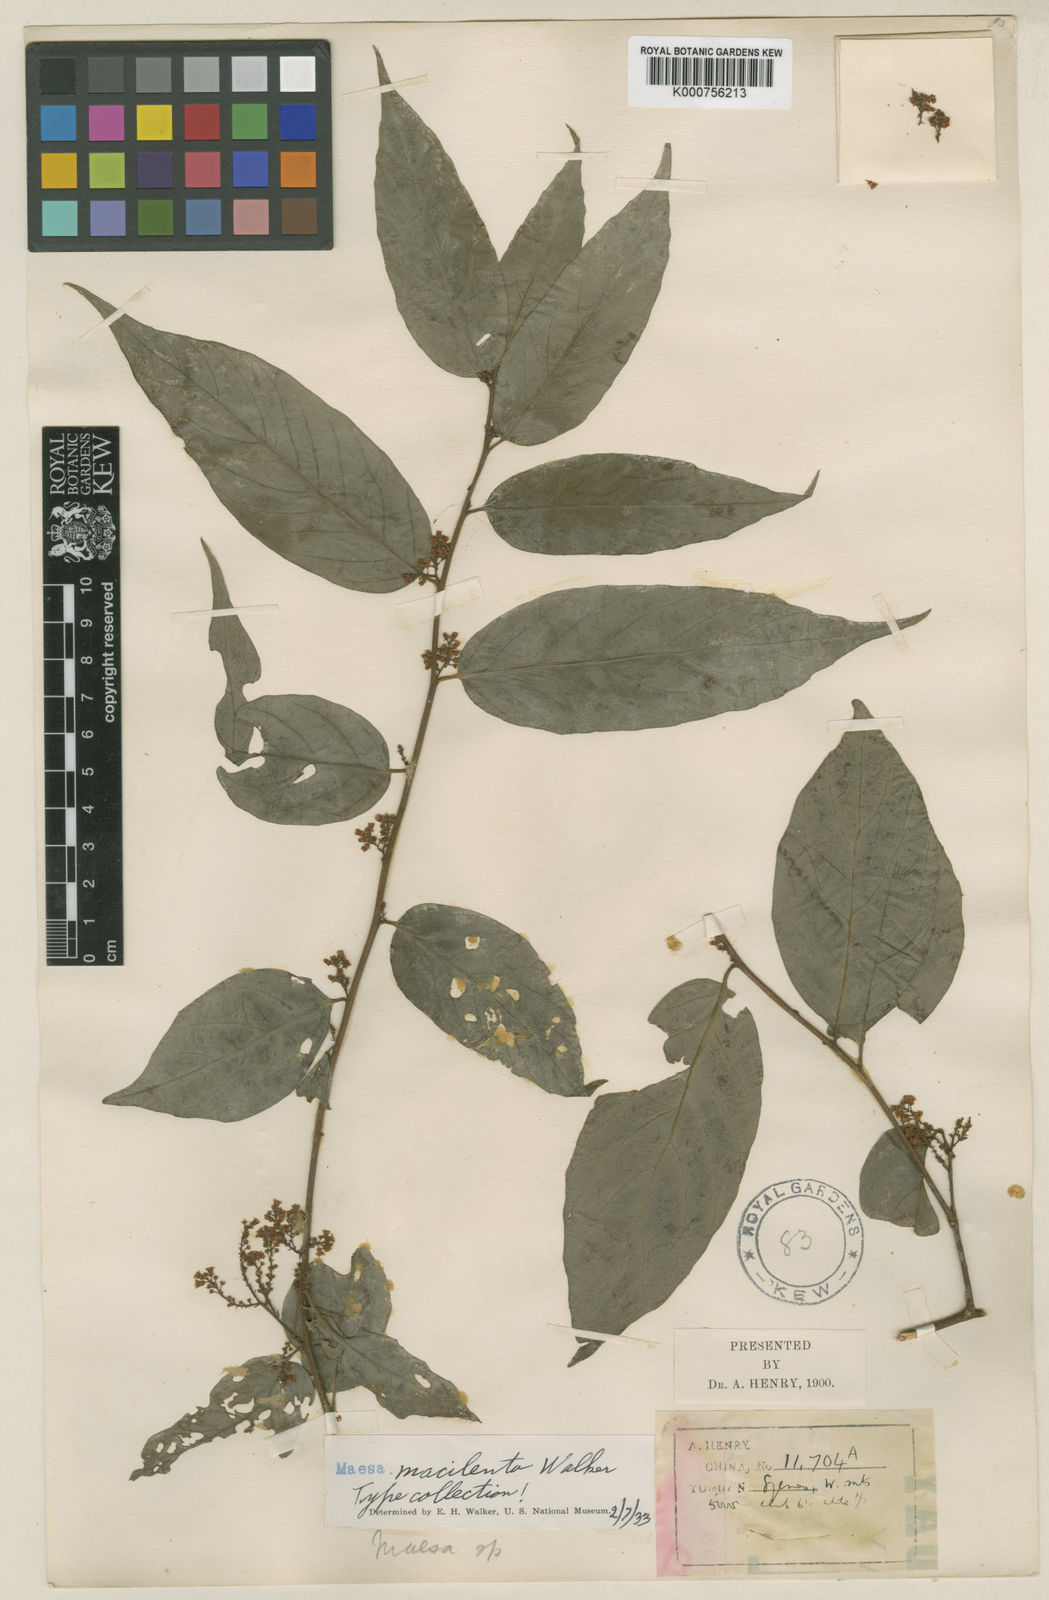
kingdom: Plantae
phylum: Tracheophyta
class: Magnoliopsida
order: Ericales
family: Primulaceae
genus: Maesa
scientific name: Maesa macilenta
